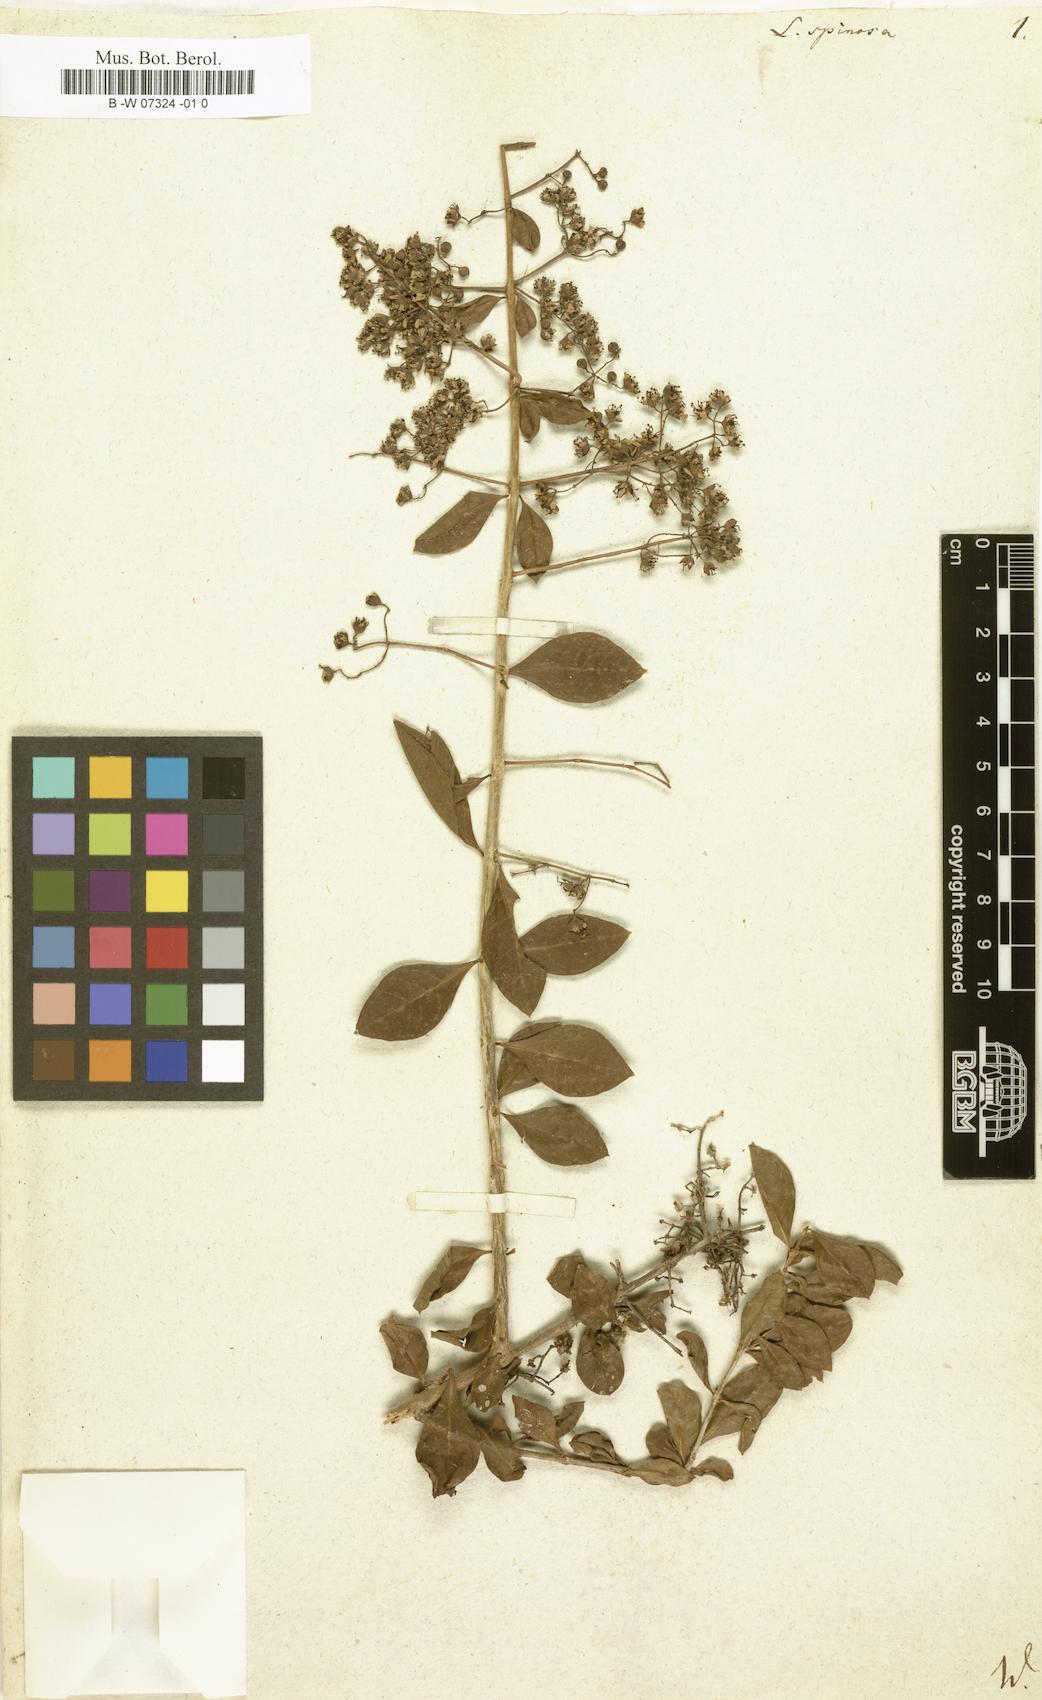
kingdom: Plantae
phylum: Tracheophyta
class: Magnoliopsida
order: Myrtales
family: Lythraceae
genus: Lawsonia
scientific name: Lawsonia inermis
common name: Henna
